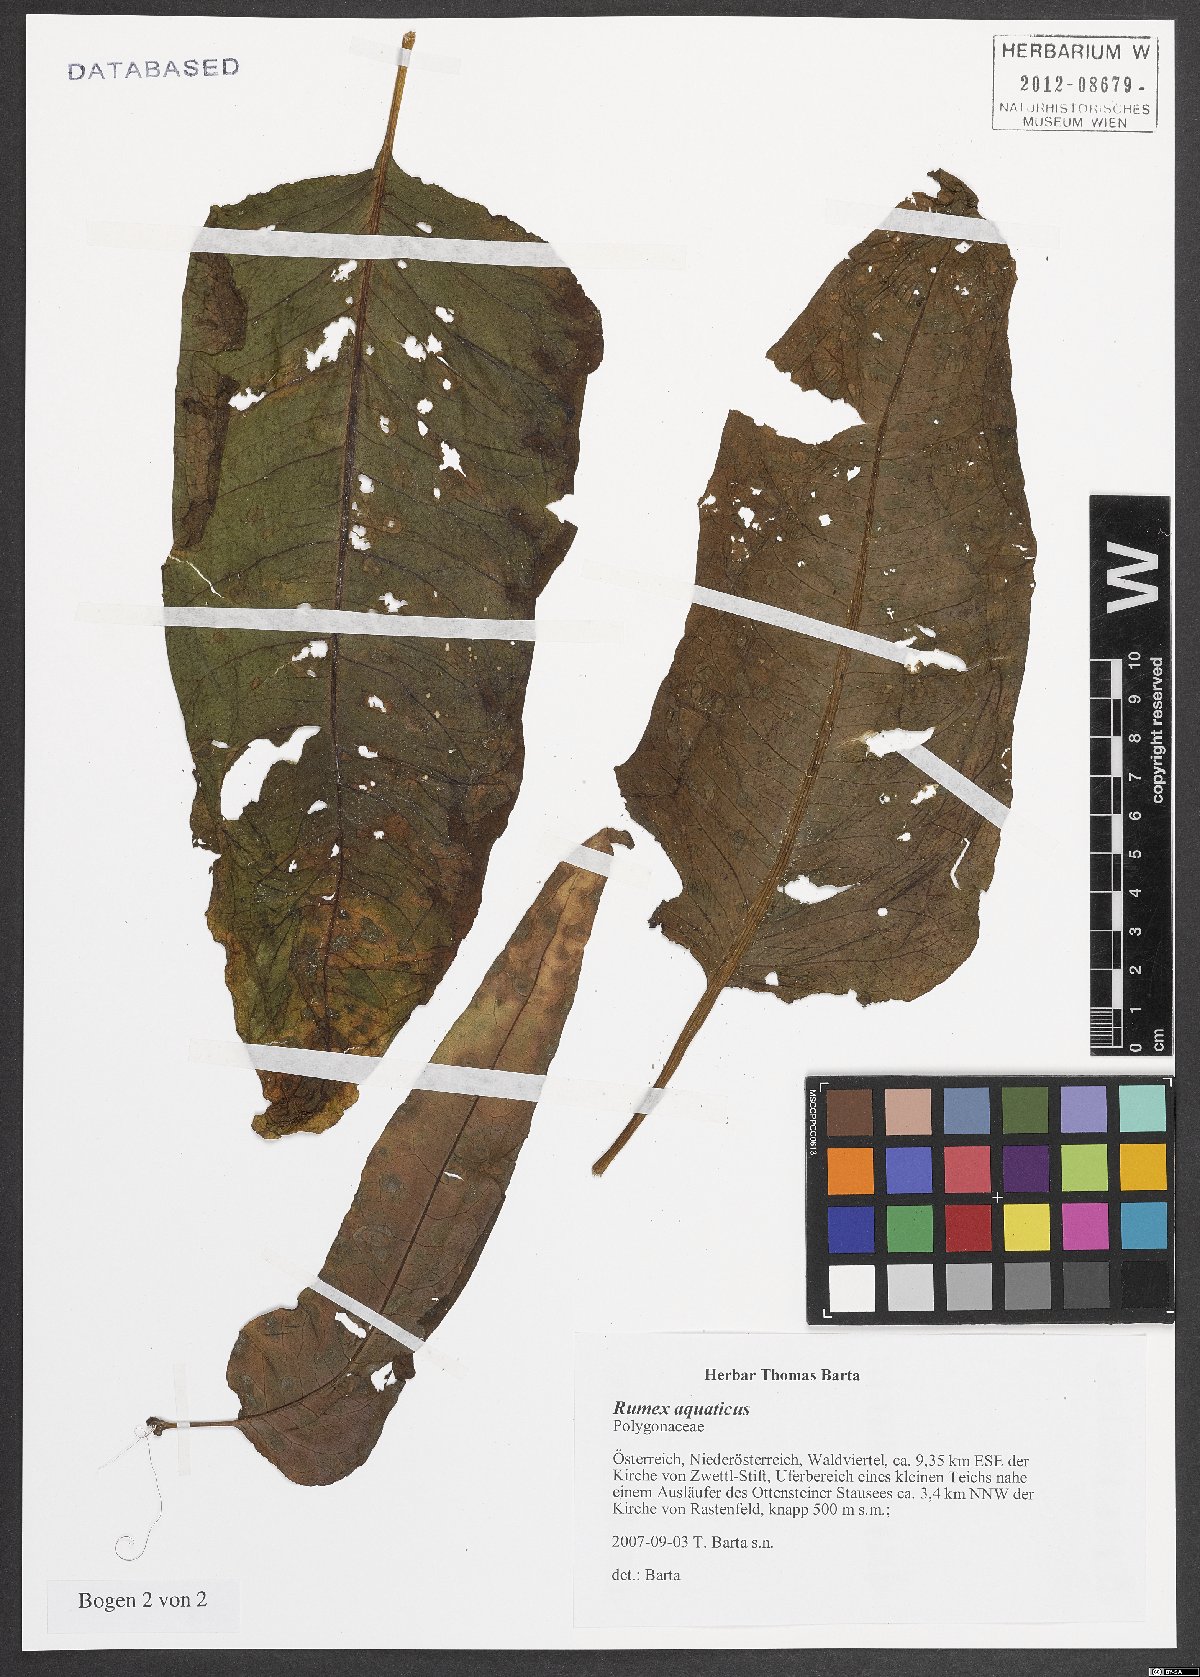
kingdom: Plantae
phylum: Tracheophyta
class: Magnoliopsida
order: Caryophyllales
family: Polygonaceae
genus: Rumex
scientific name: Rumex aquaticus
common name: Scottish dock
